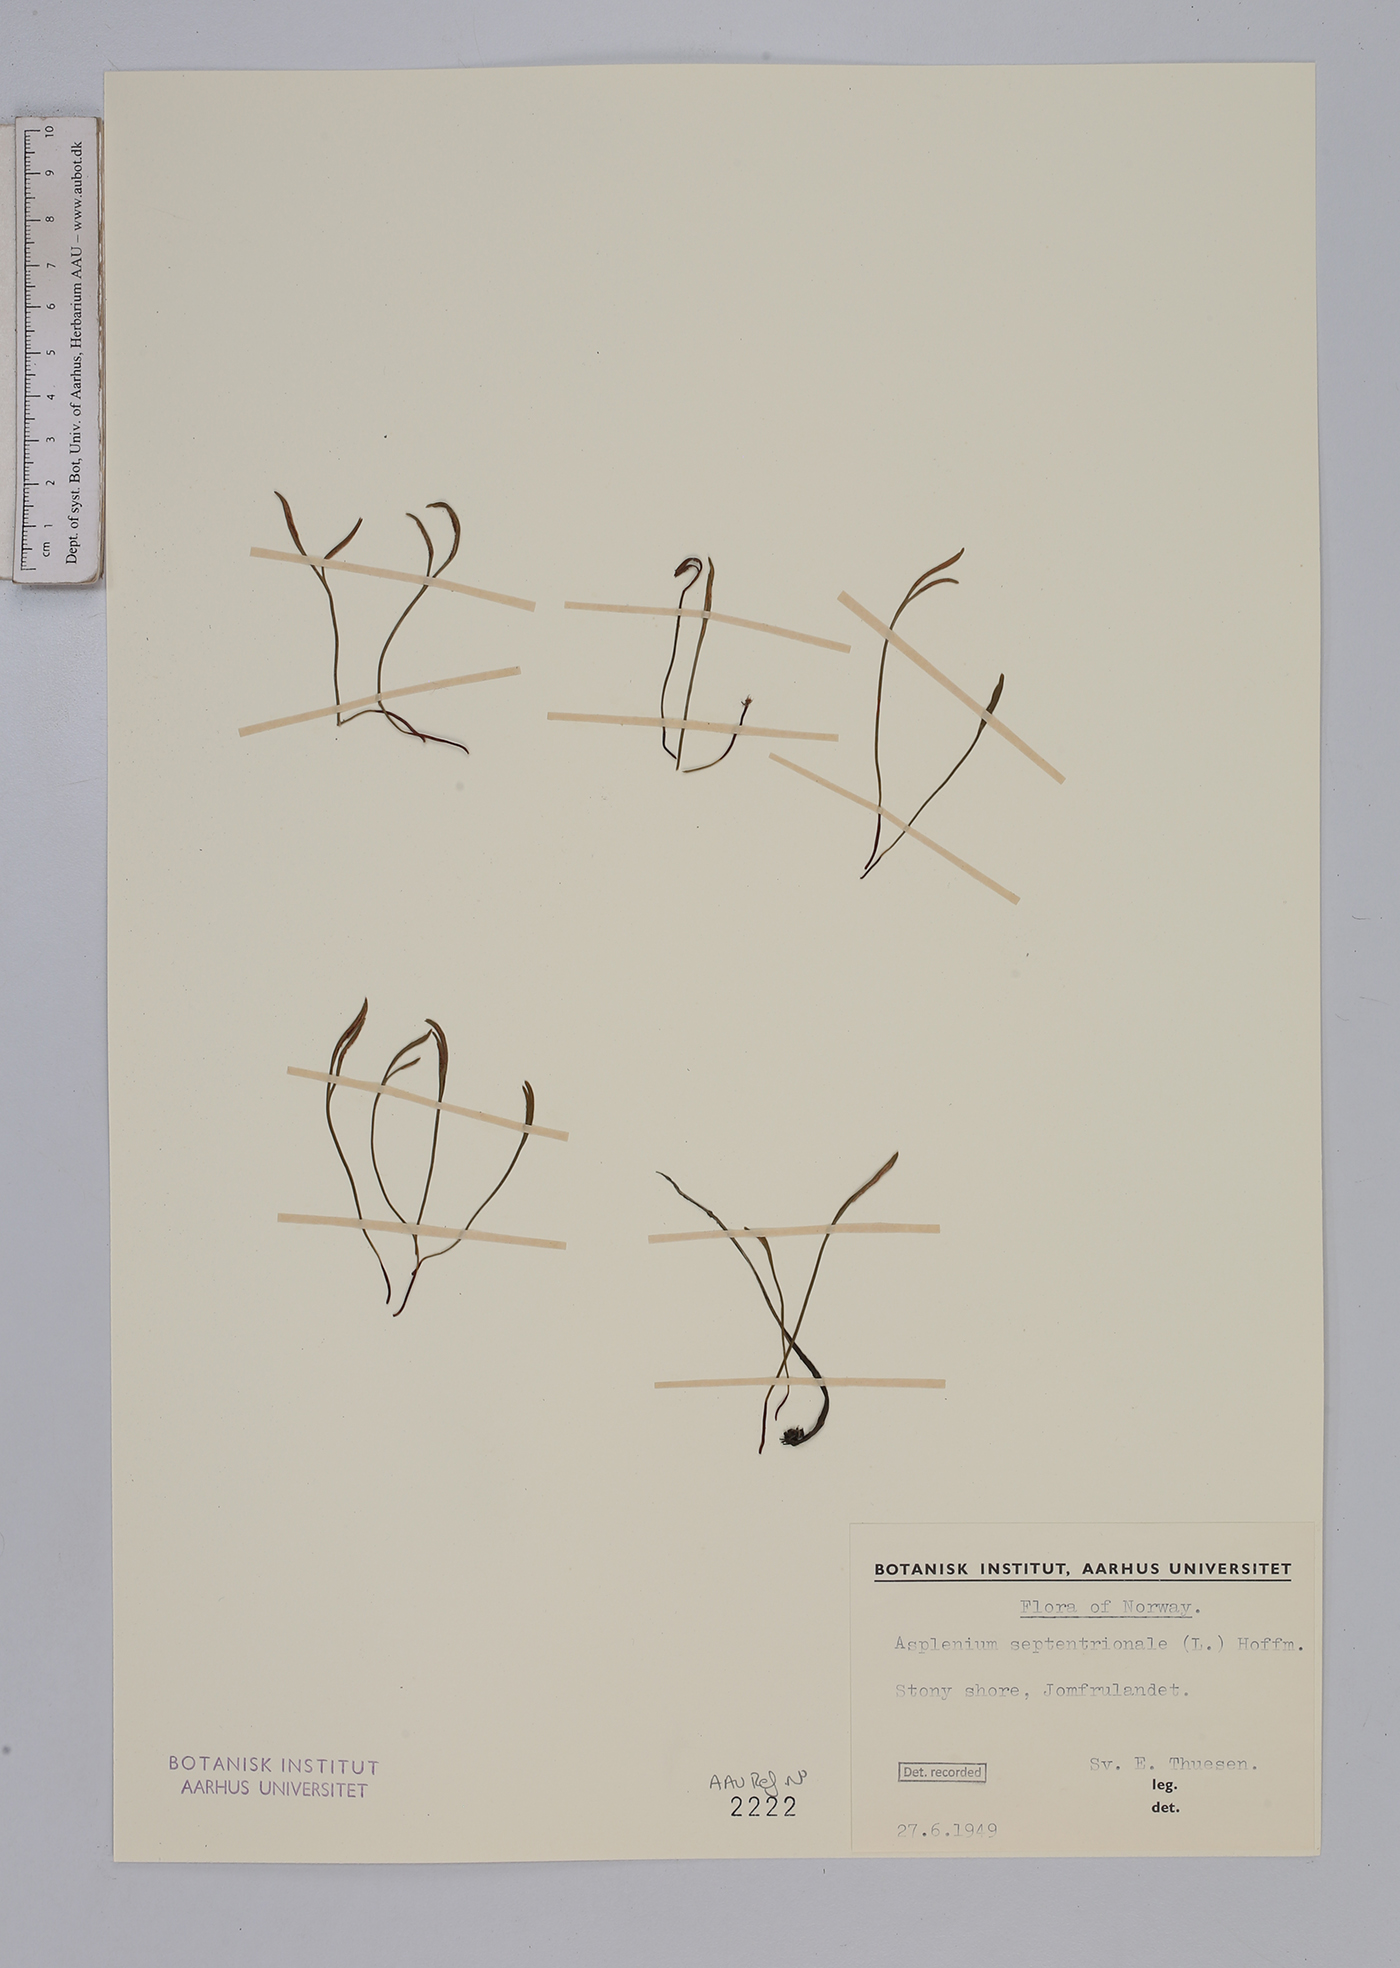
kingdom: Plantae
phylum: Tracheophyta
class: Polypodiopsida
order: Polypodiales
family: Aspleniaceae
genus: Asplenium
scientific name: Asplenium septentrionale
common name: Forked spleenwort
